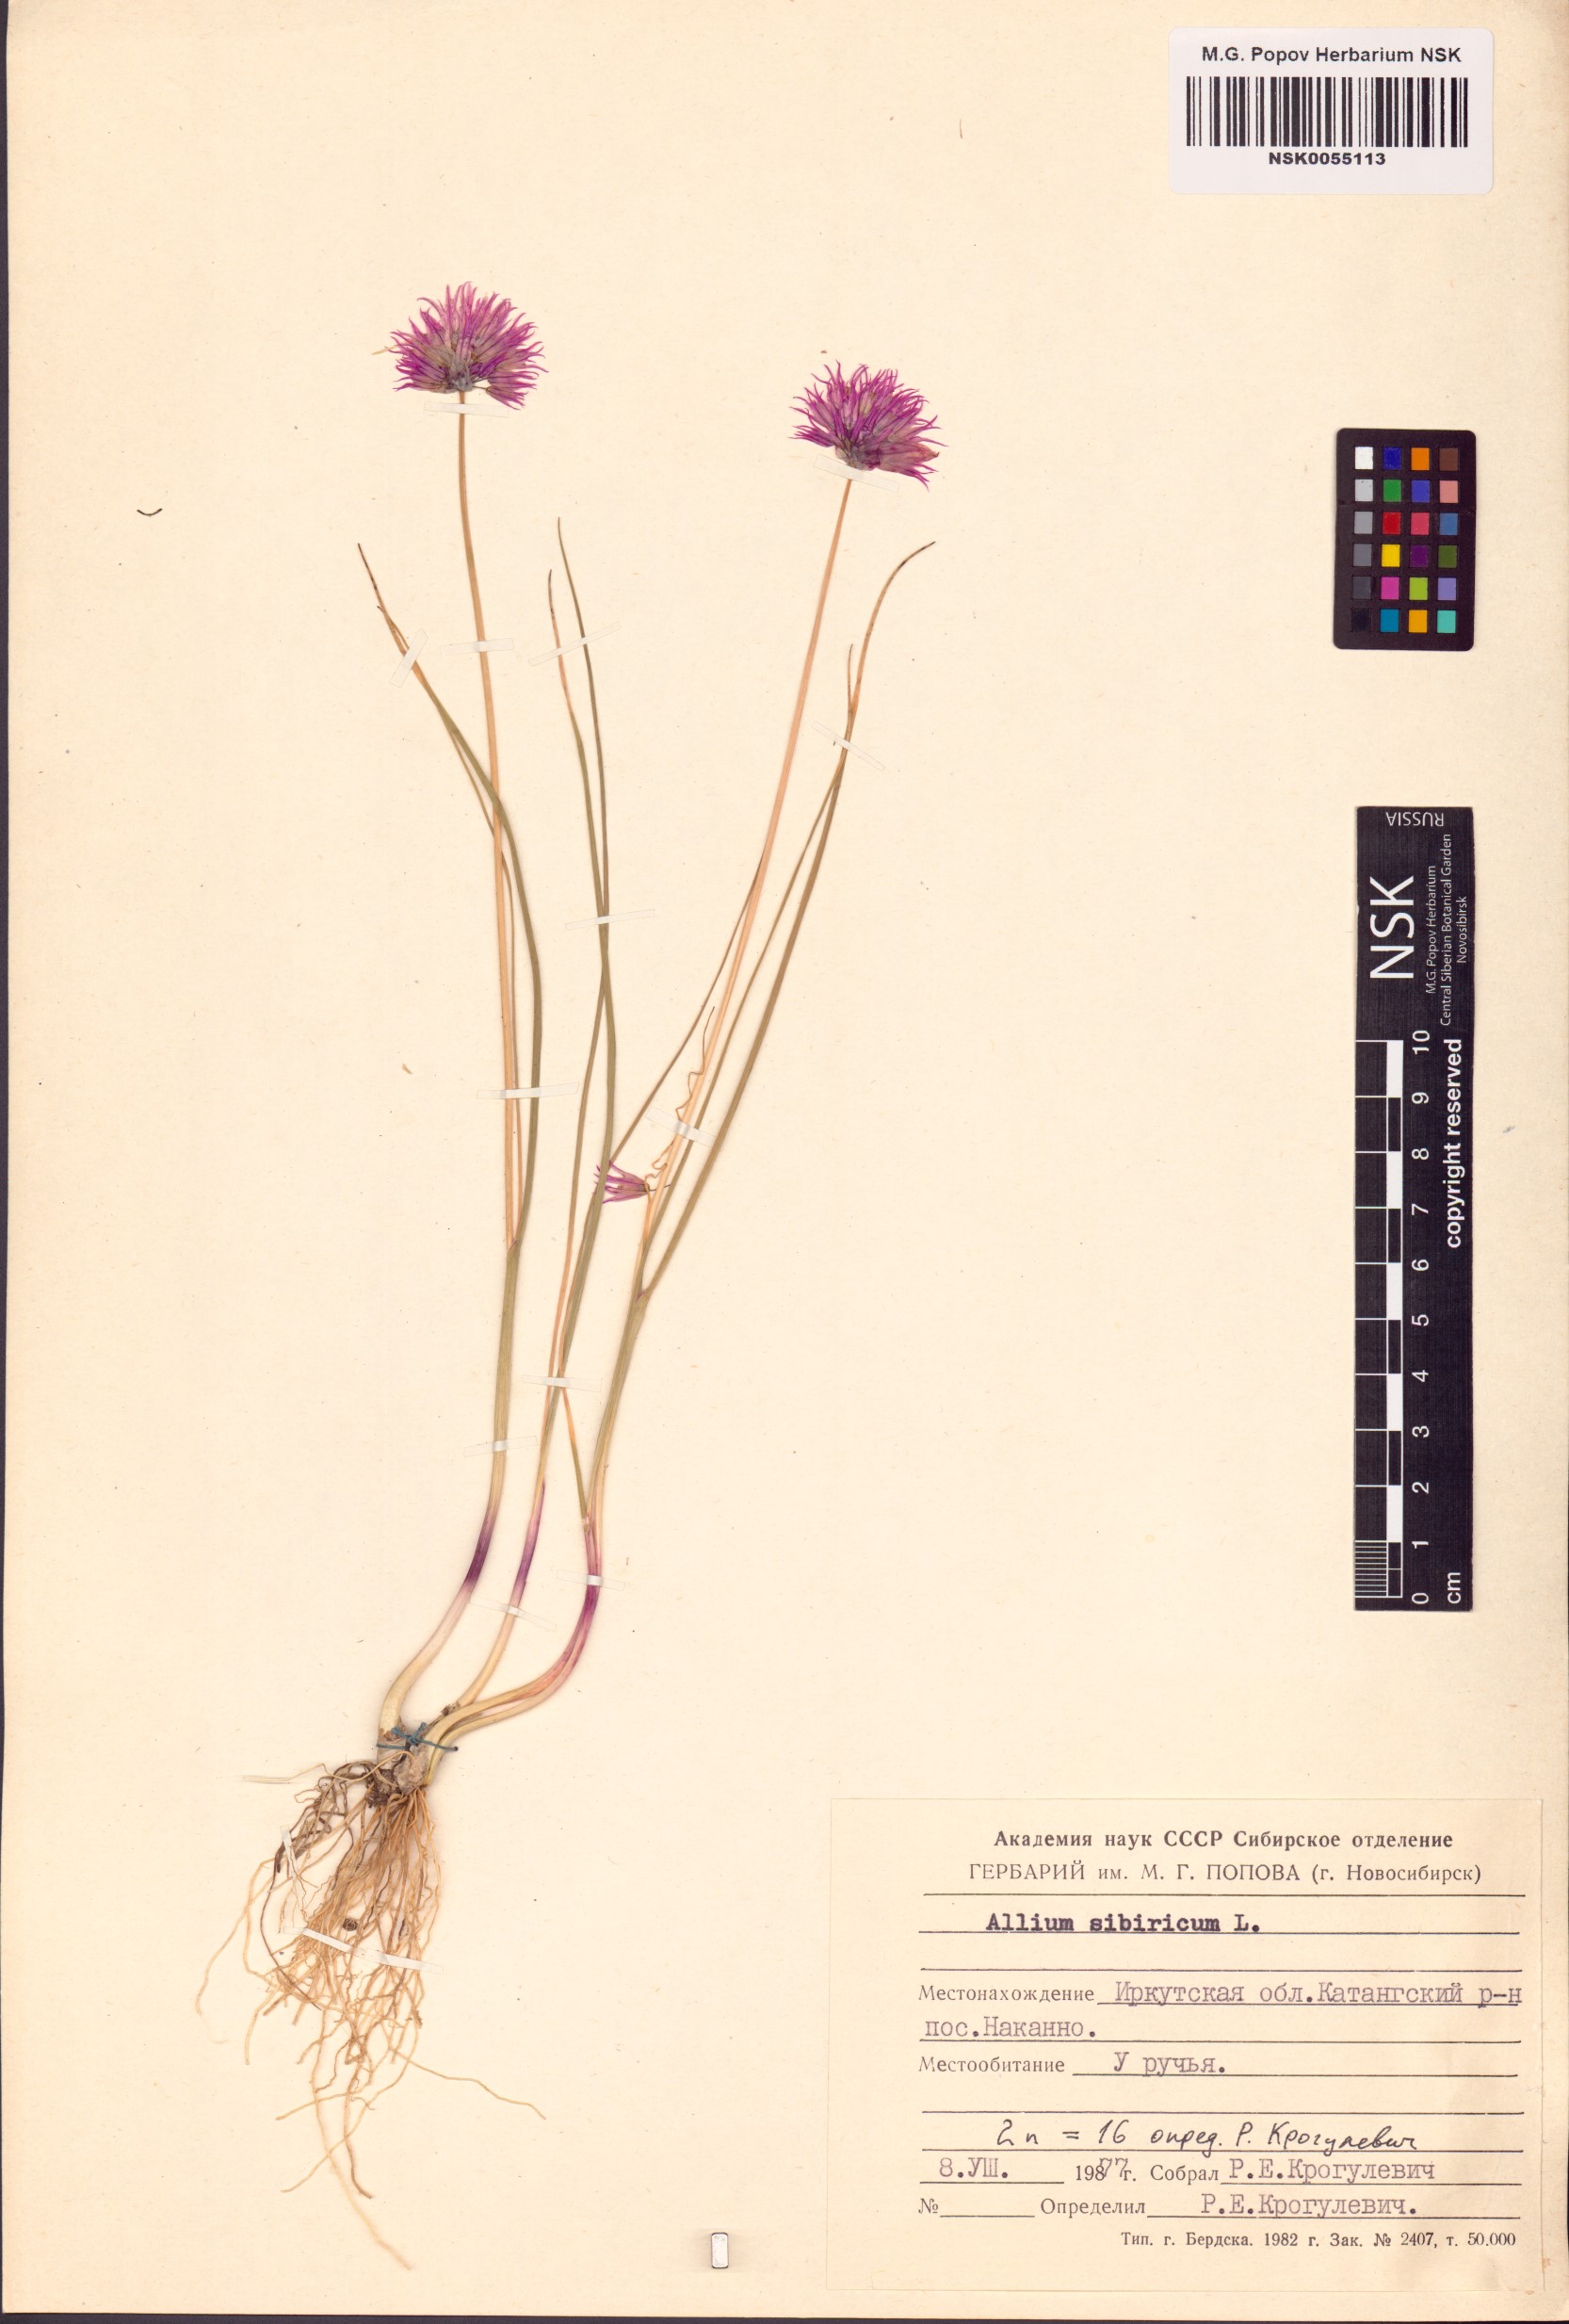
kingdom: Plantae
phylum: Tracheophyta
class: Liliopsida
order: Asparagales
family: Amaryllidaceae
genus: Allium
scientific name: Allium schoenoprasum
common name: Chives
